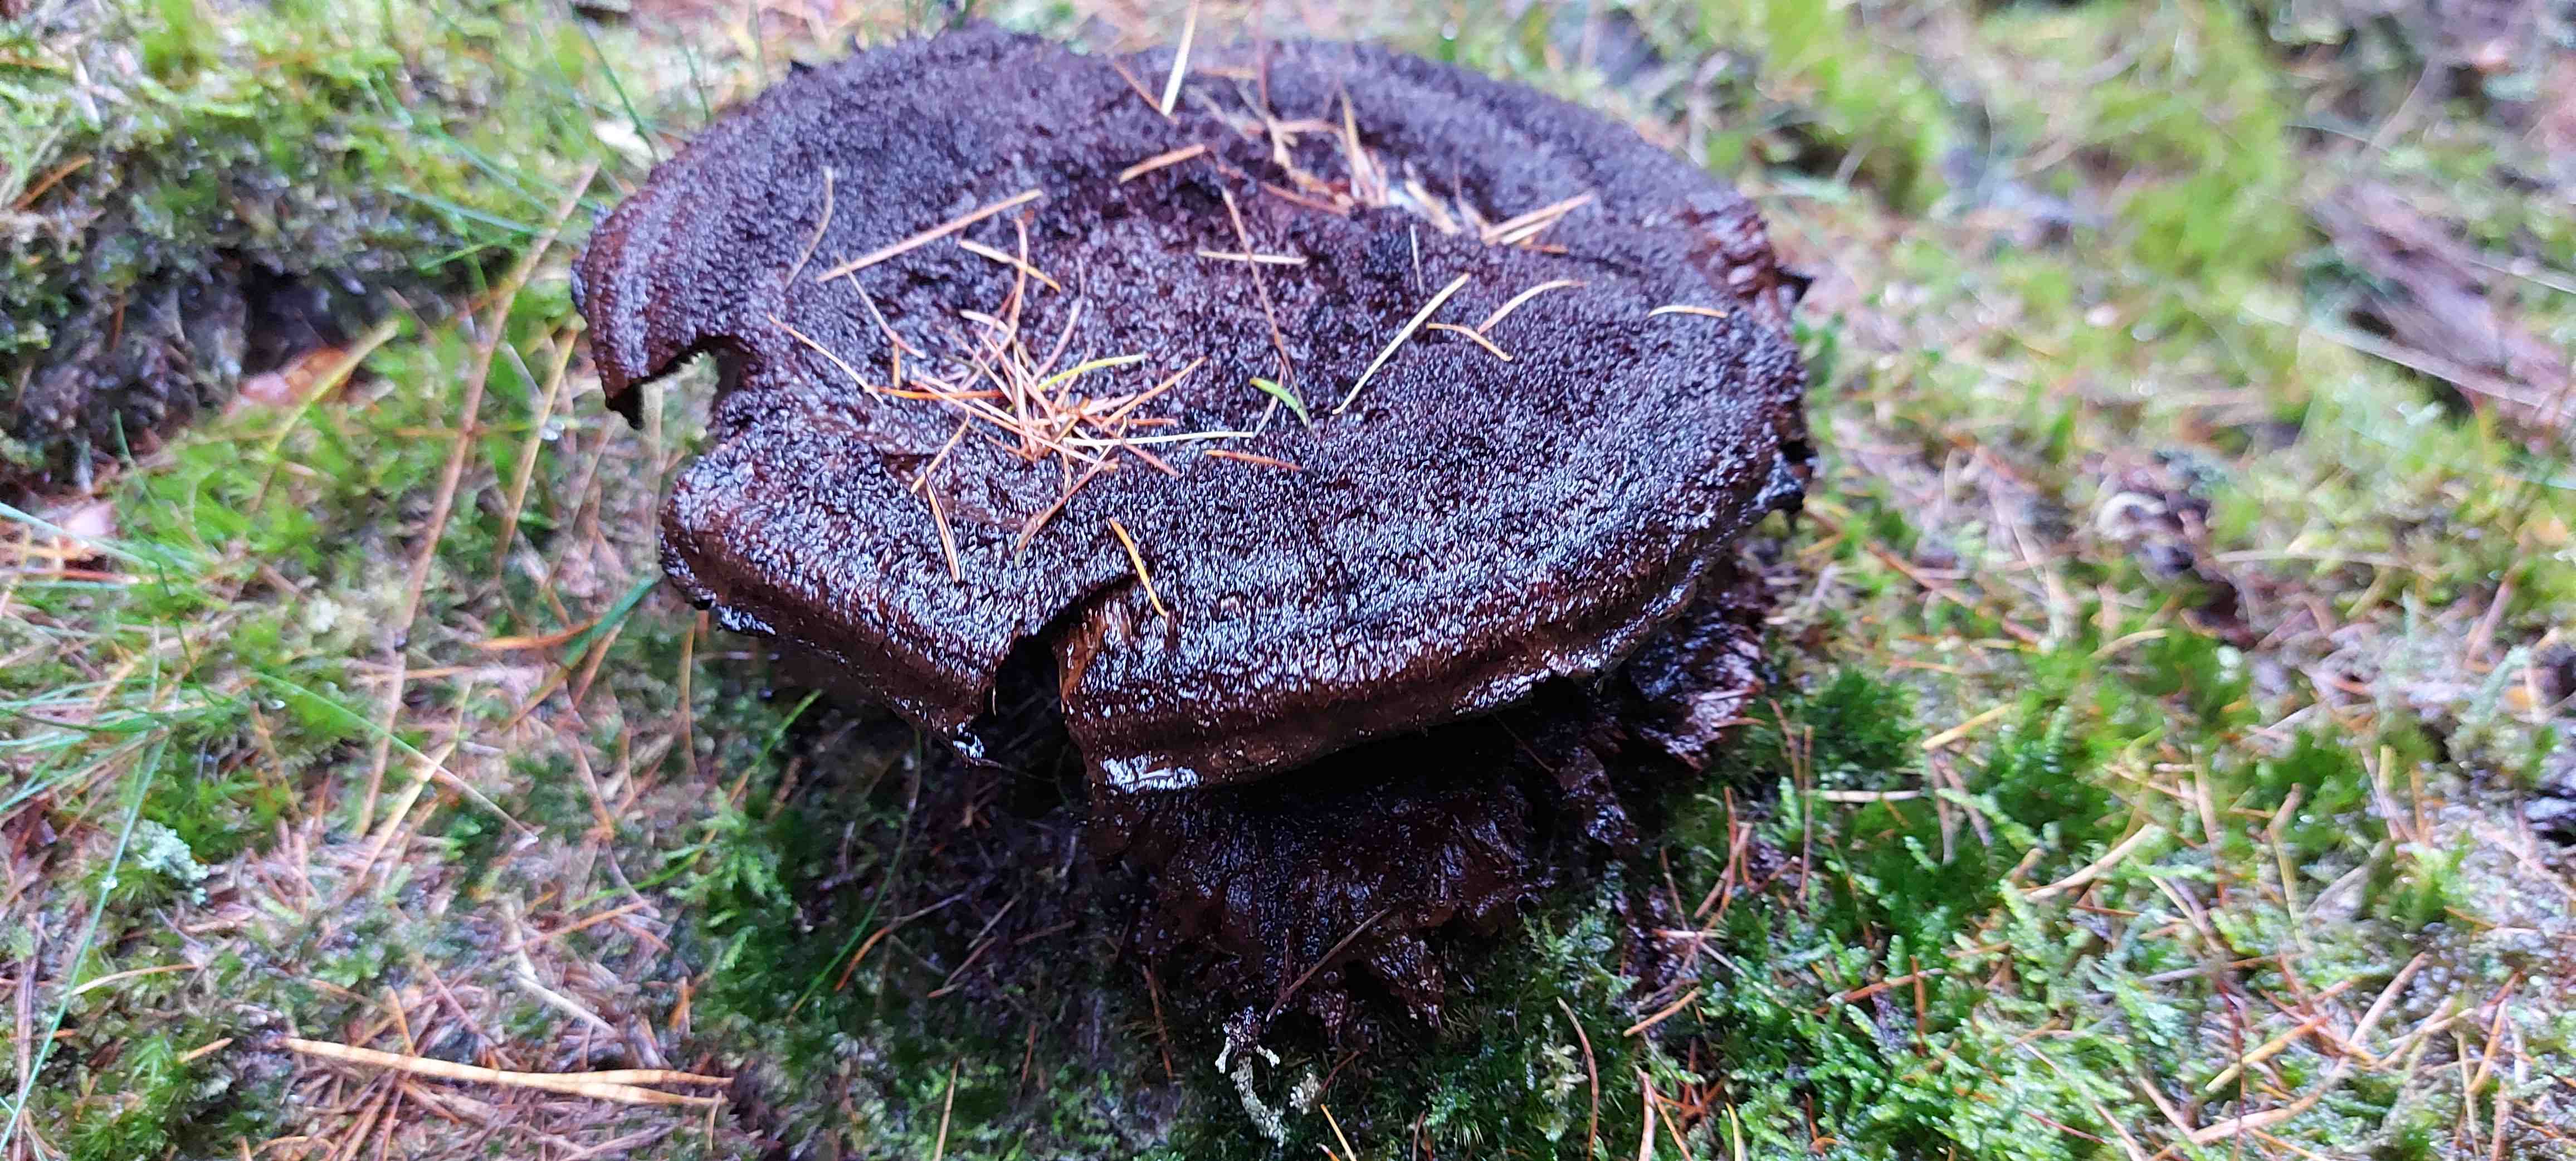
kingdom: Fungi
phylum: Basidiomycota
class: Agaricomycetes
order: Polyporales
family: Laetiporaceae
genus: Phaeolus
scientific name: Phaeolus schweinitzii
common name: brunporesvamp
